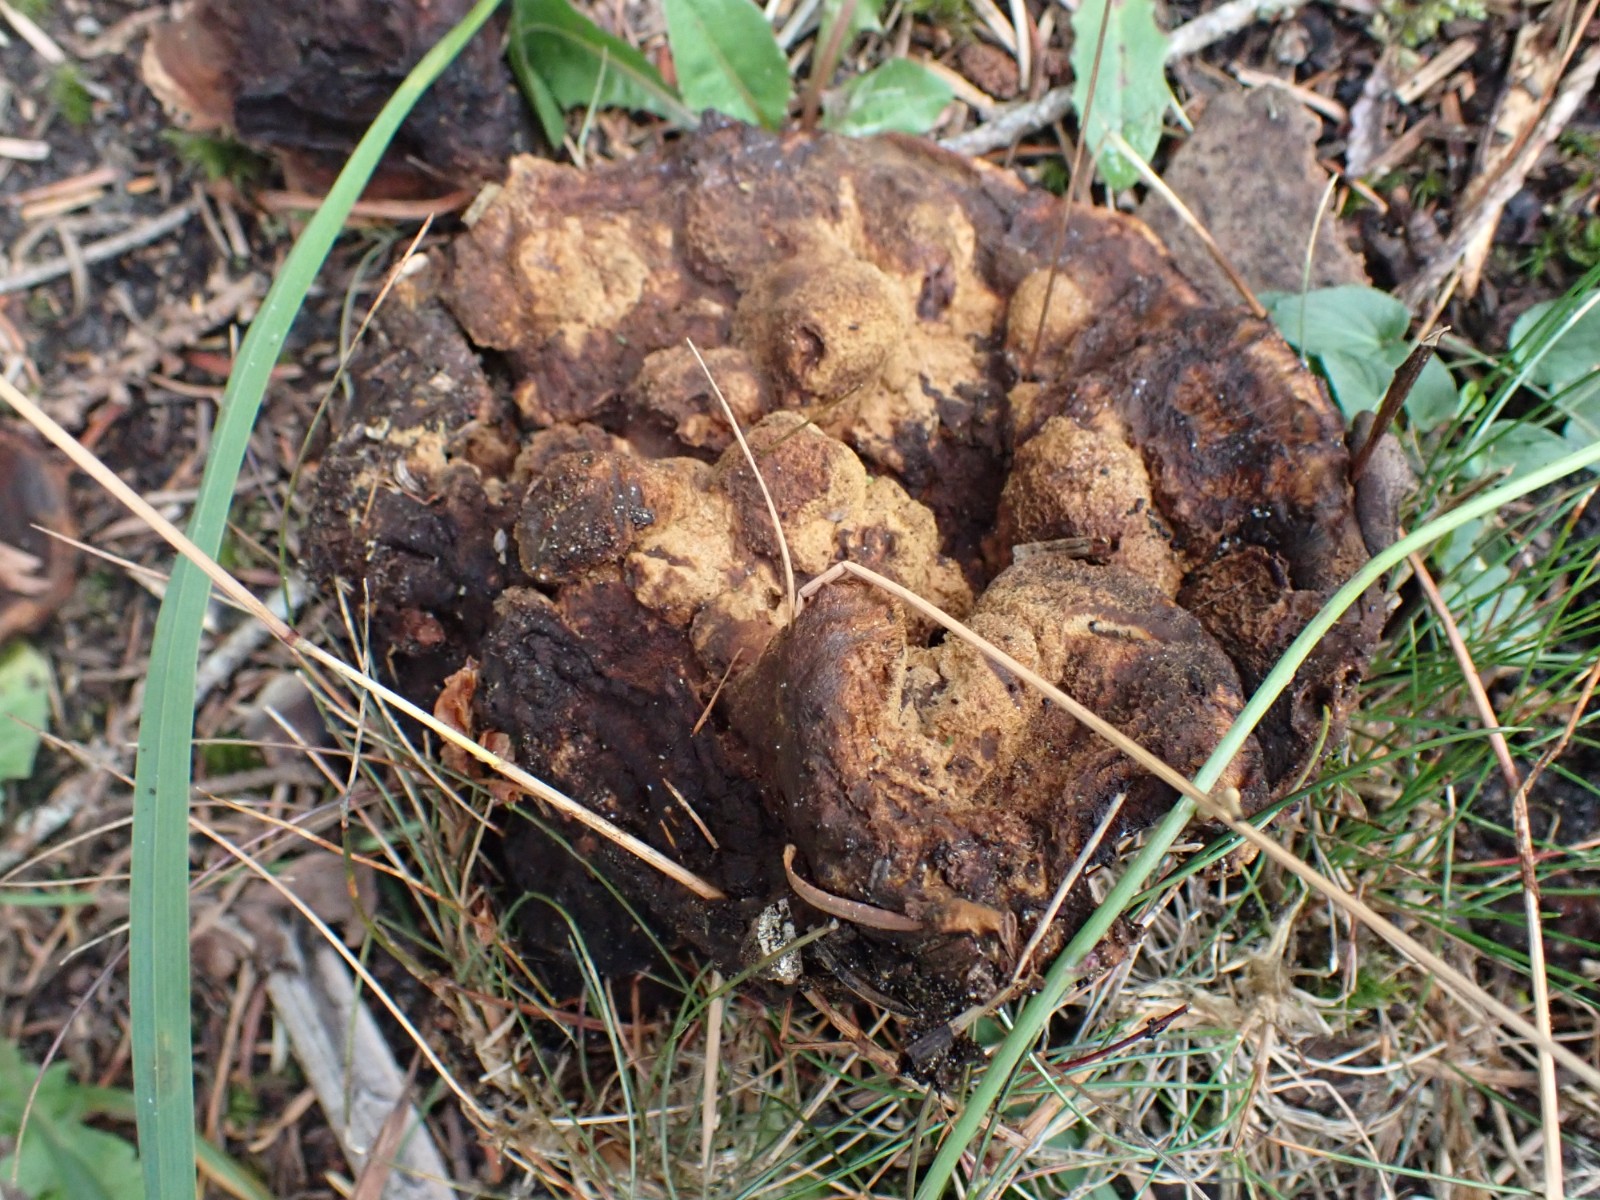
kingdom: Fungi
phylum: Basidiomycota
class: Agaricomycetes
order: Polyporales
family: Laetiporaceae
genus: Phaeolus
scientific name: Phaeolus schweinitzii
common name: brunporesvamp
